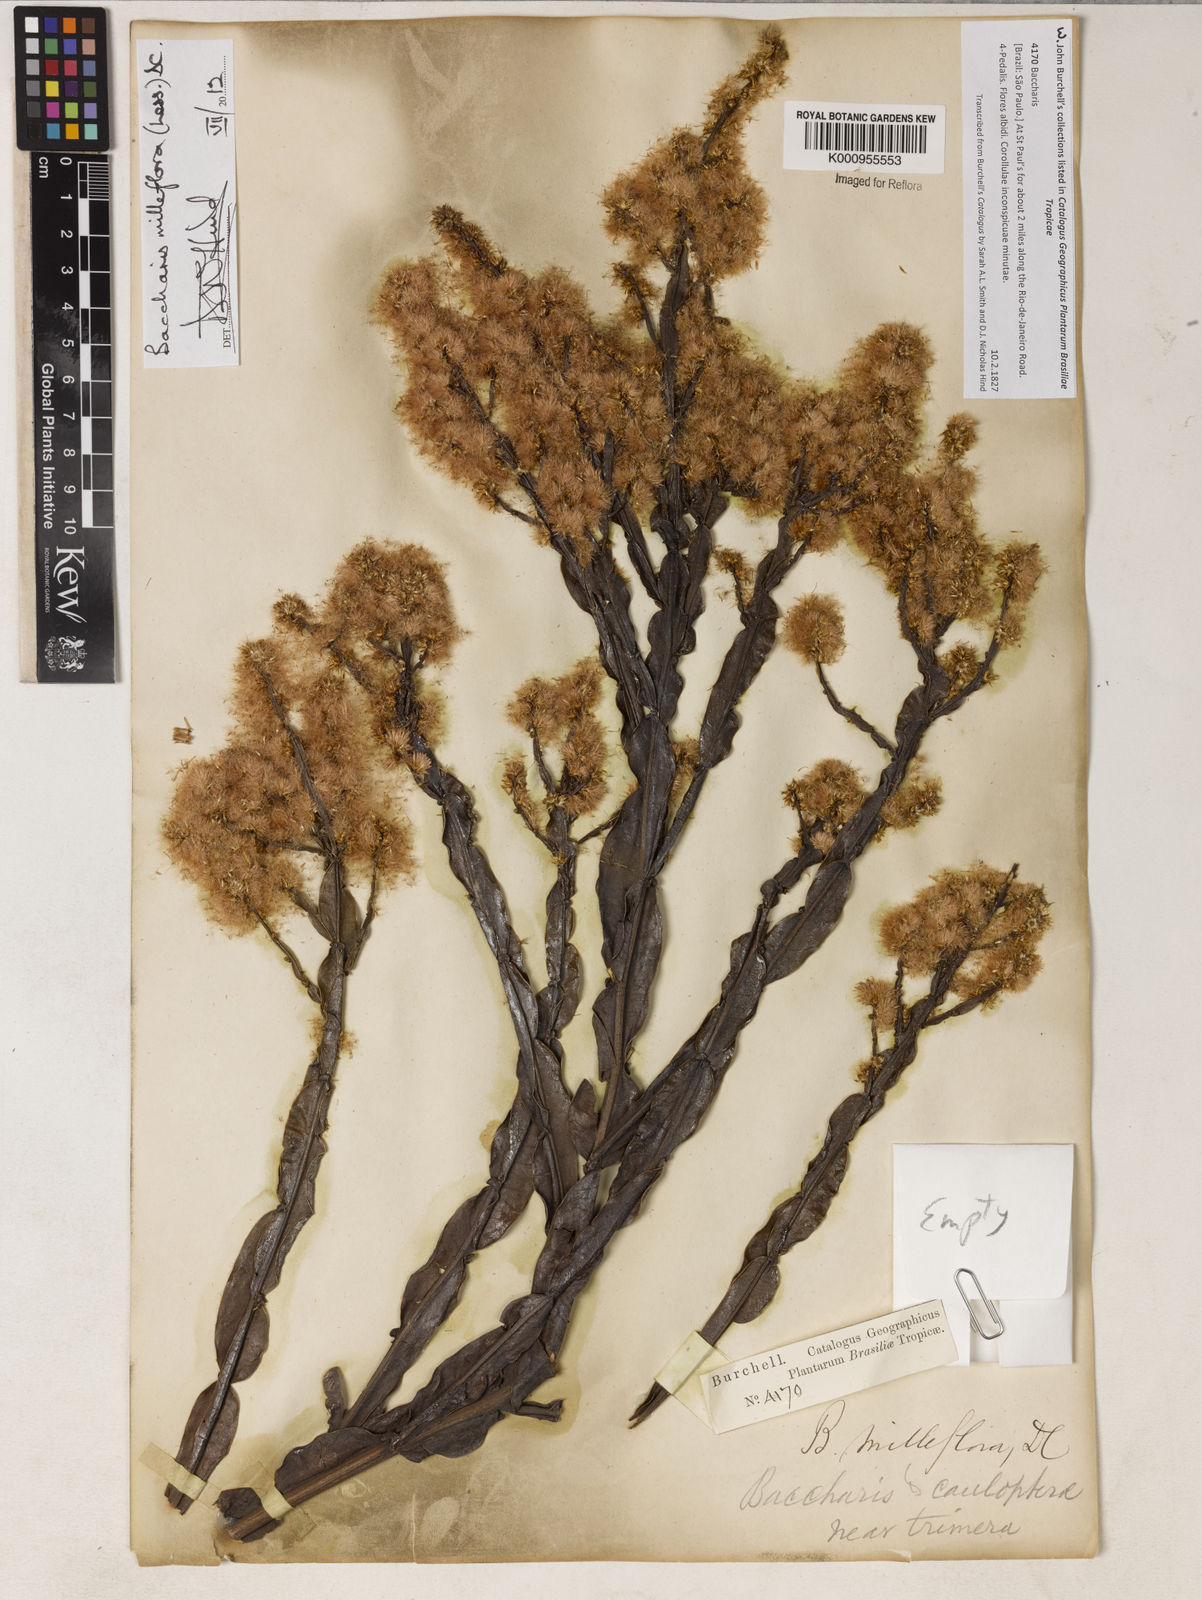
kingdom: Plantae
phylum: Tracheophyta
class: Magnoliopsida
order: Asterales
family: Asteraceae
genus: Baccharis
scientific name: Baccharis milleflora
